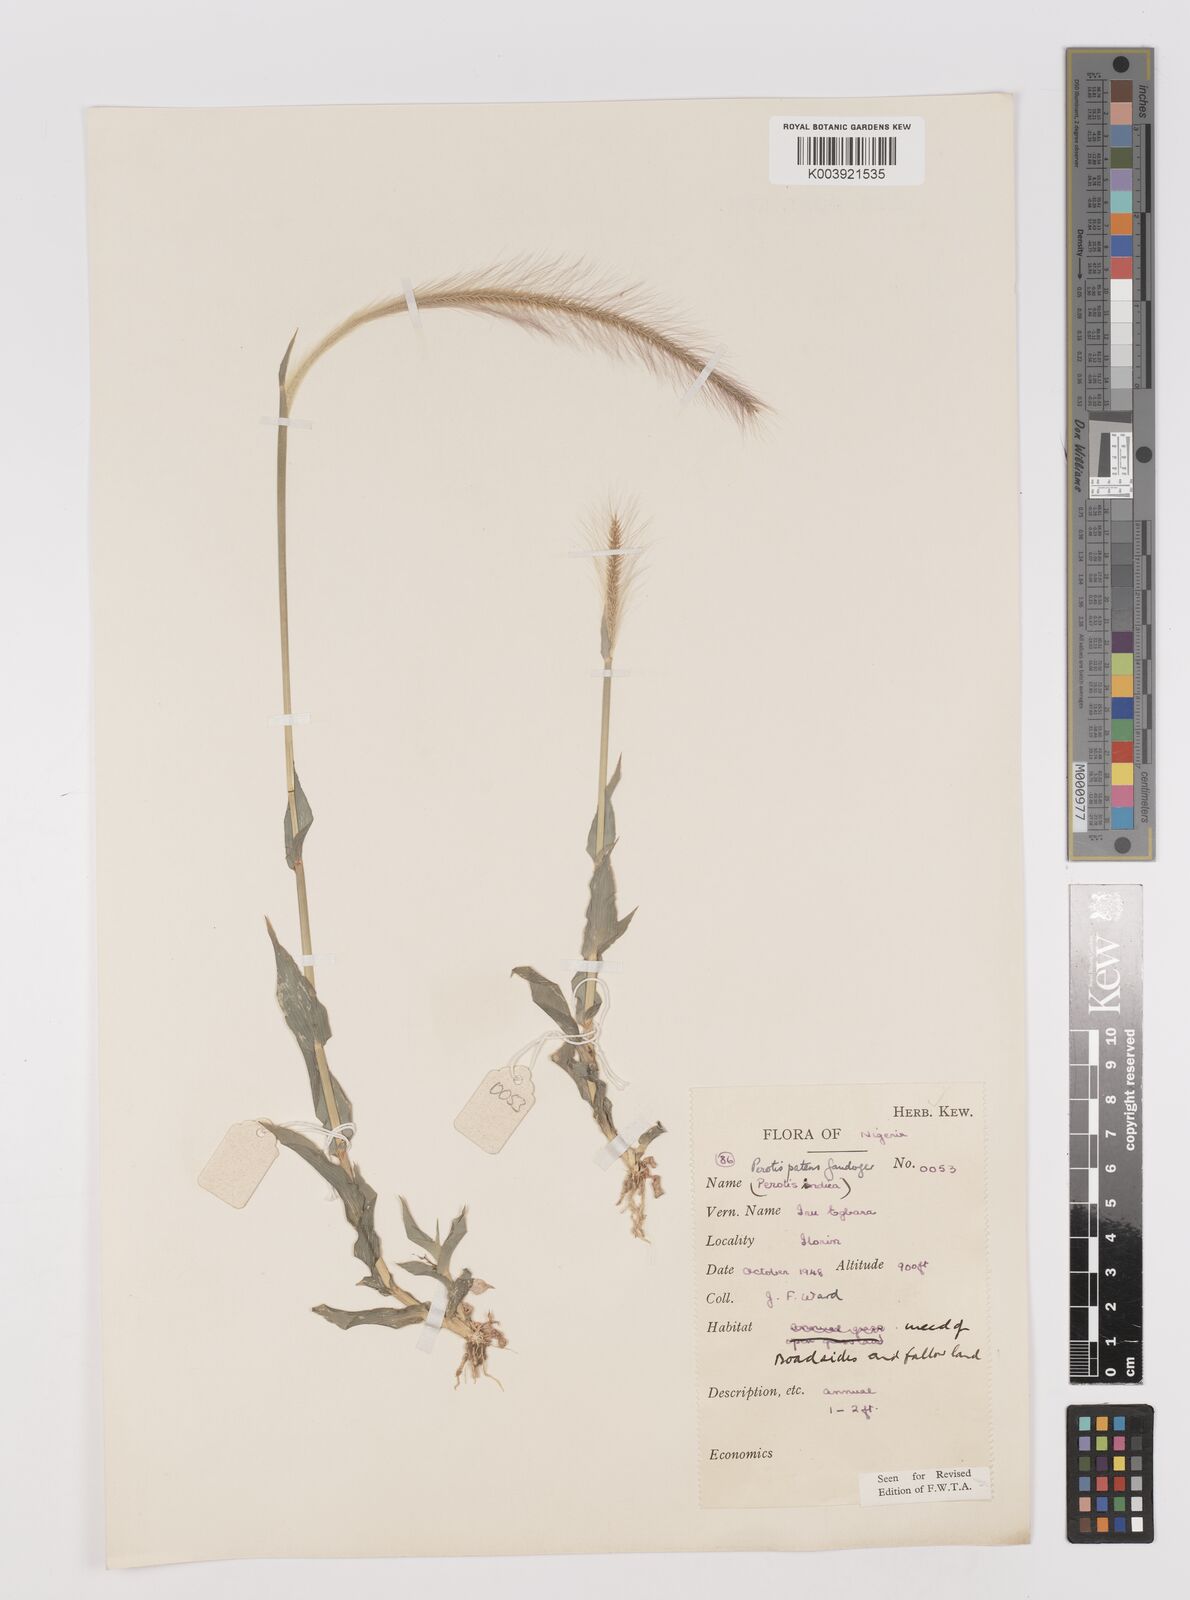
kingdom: Plantae
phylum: Tracheophyta
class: Liliopsida
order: Poales
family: Poaceae
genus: Perotis
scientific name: Perotis patens
